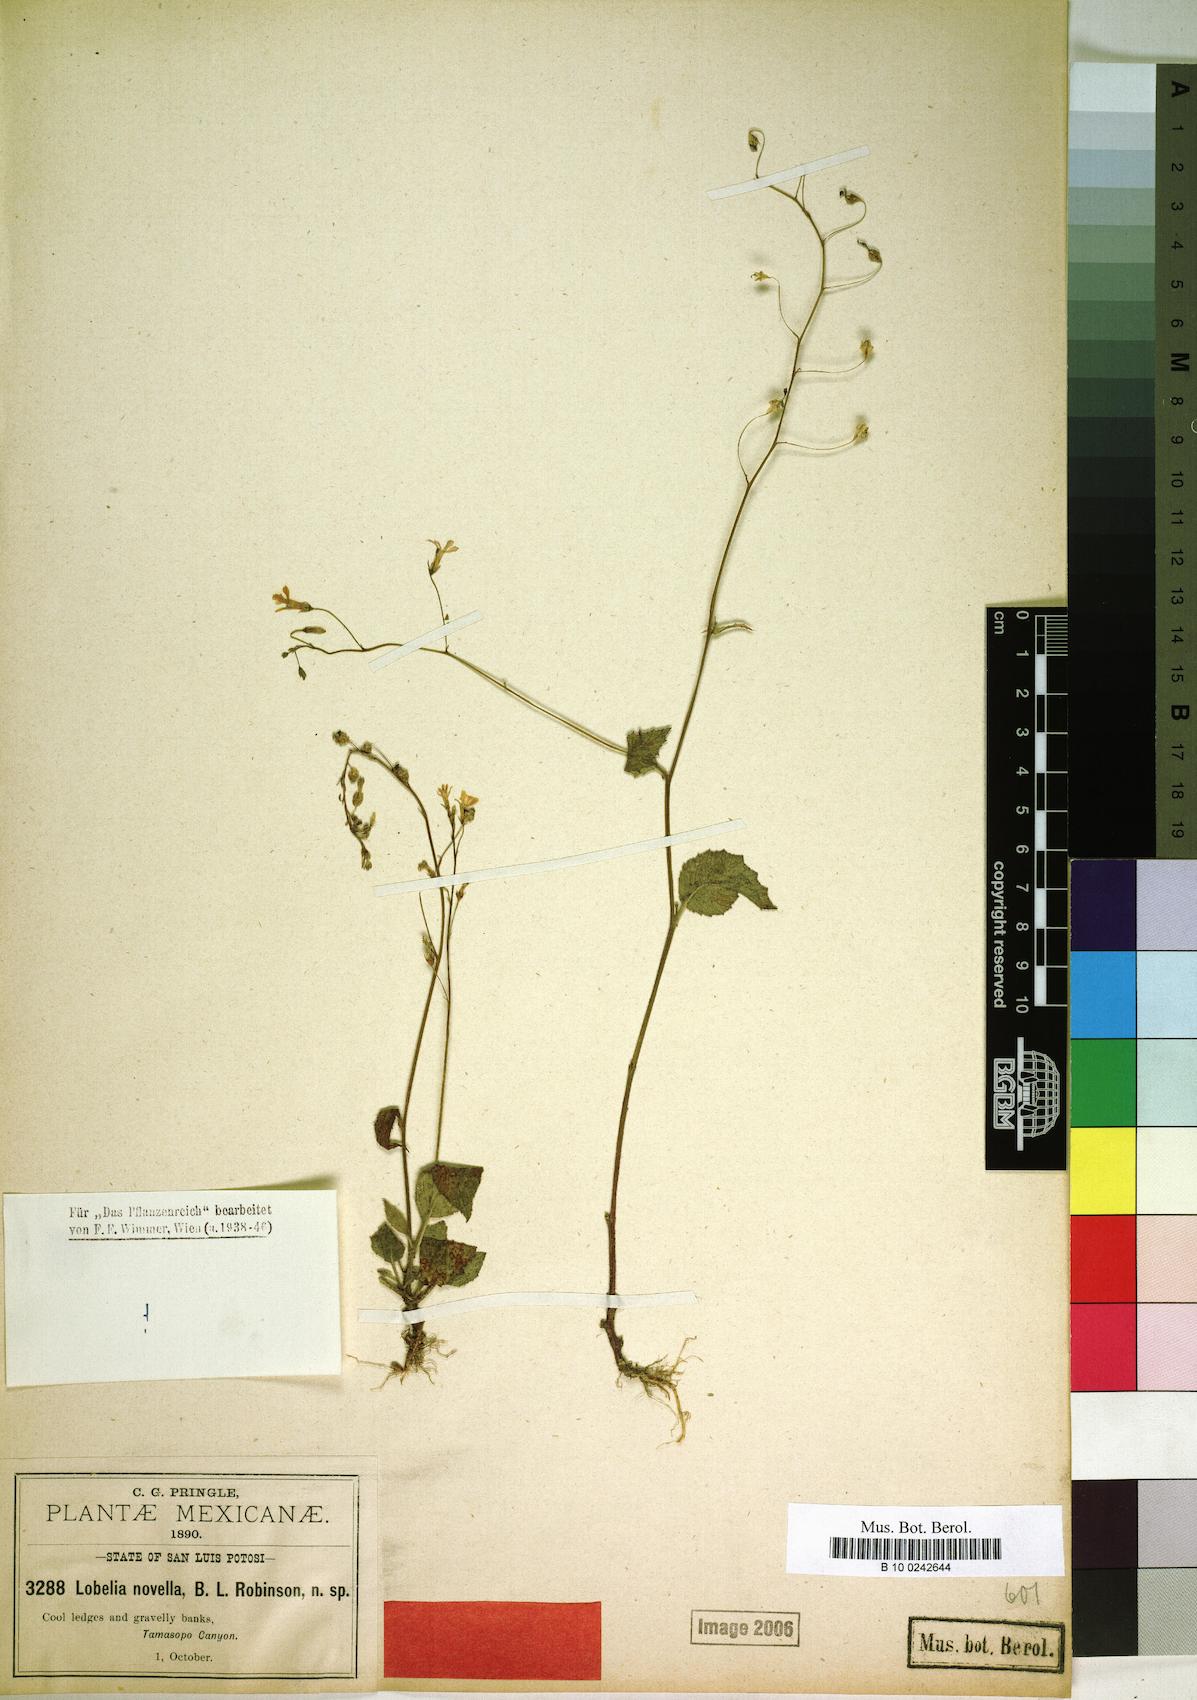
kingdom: Plantae
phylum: Tracheophyta
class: Magnoliopsida
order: Asterales
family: Campanulaceae
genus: Lobelia
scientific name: Lobelia sartorii
